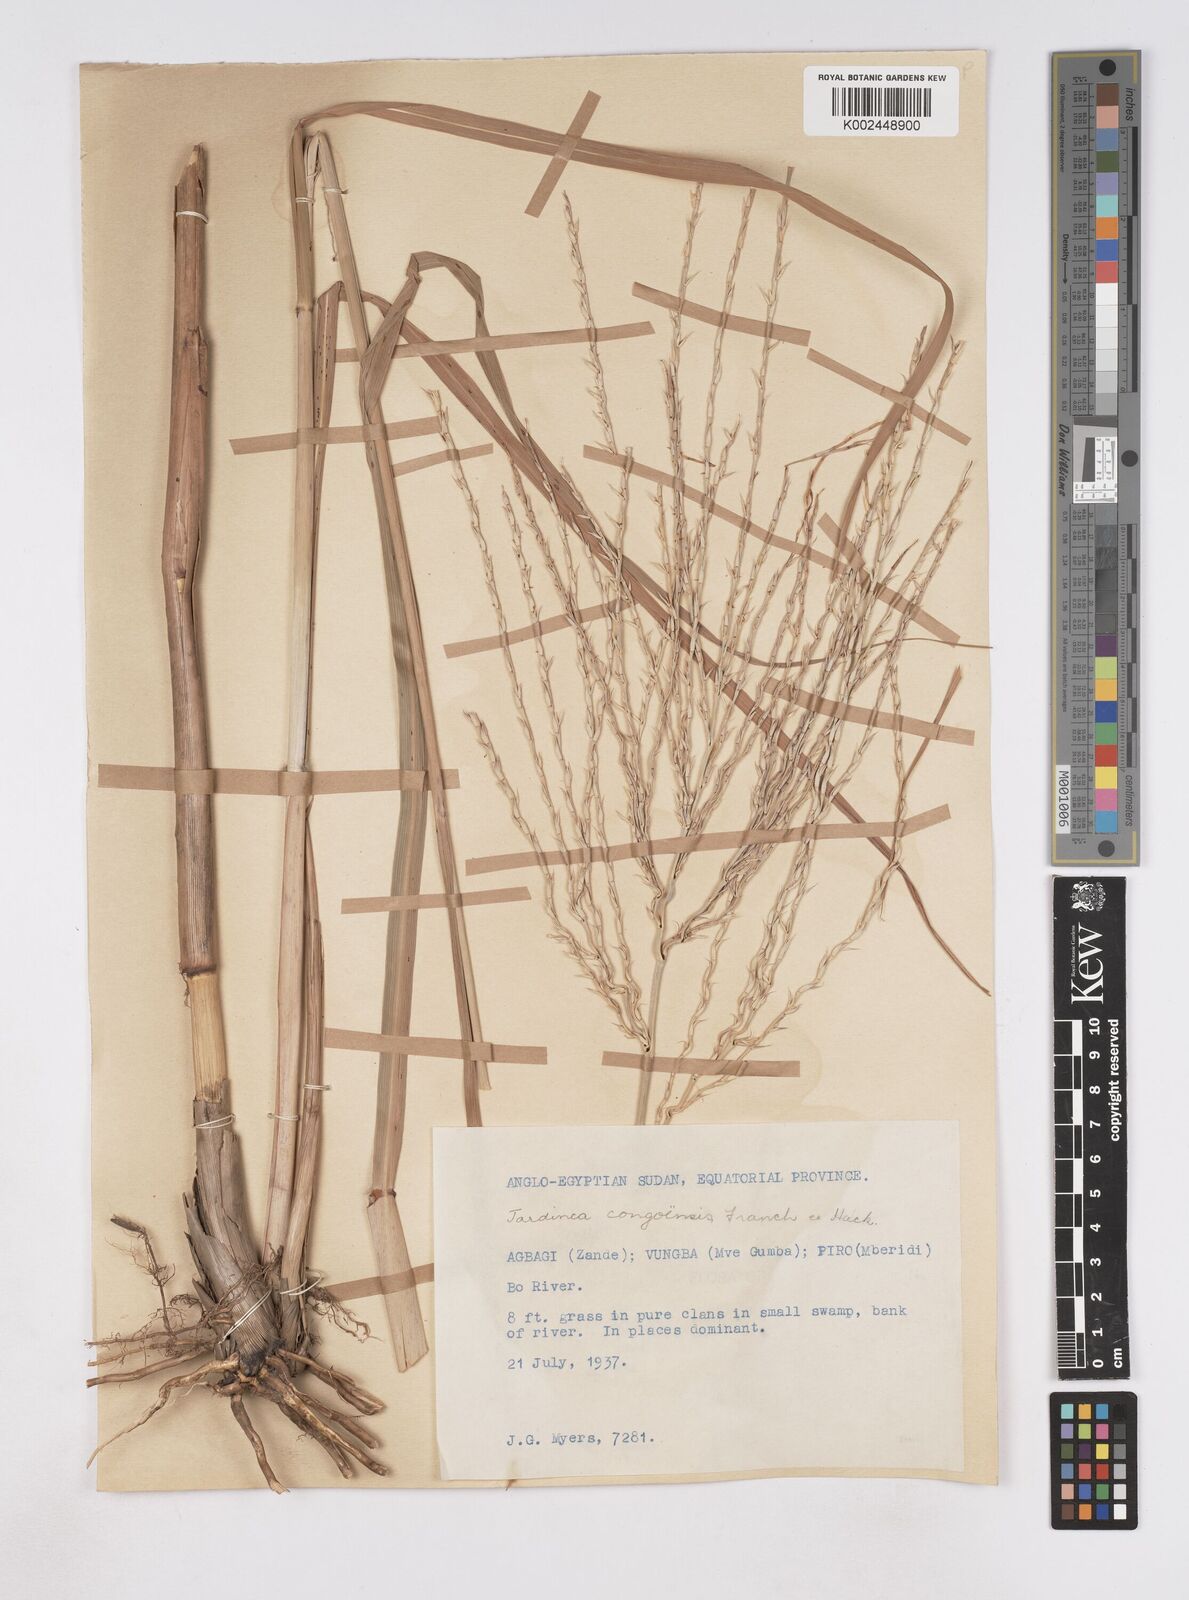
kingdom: Plantae
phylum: Tracheophyta
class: Liliopsida
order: Poales
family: Poaceae
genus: Phacelurus
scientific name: Phacelurus gabonensis
